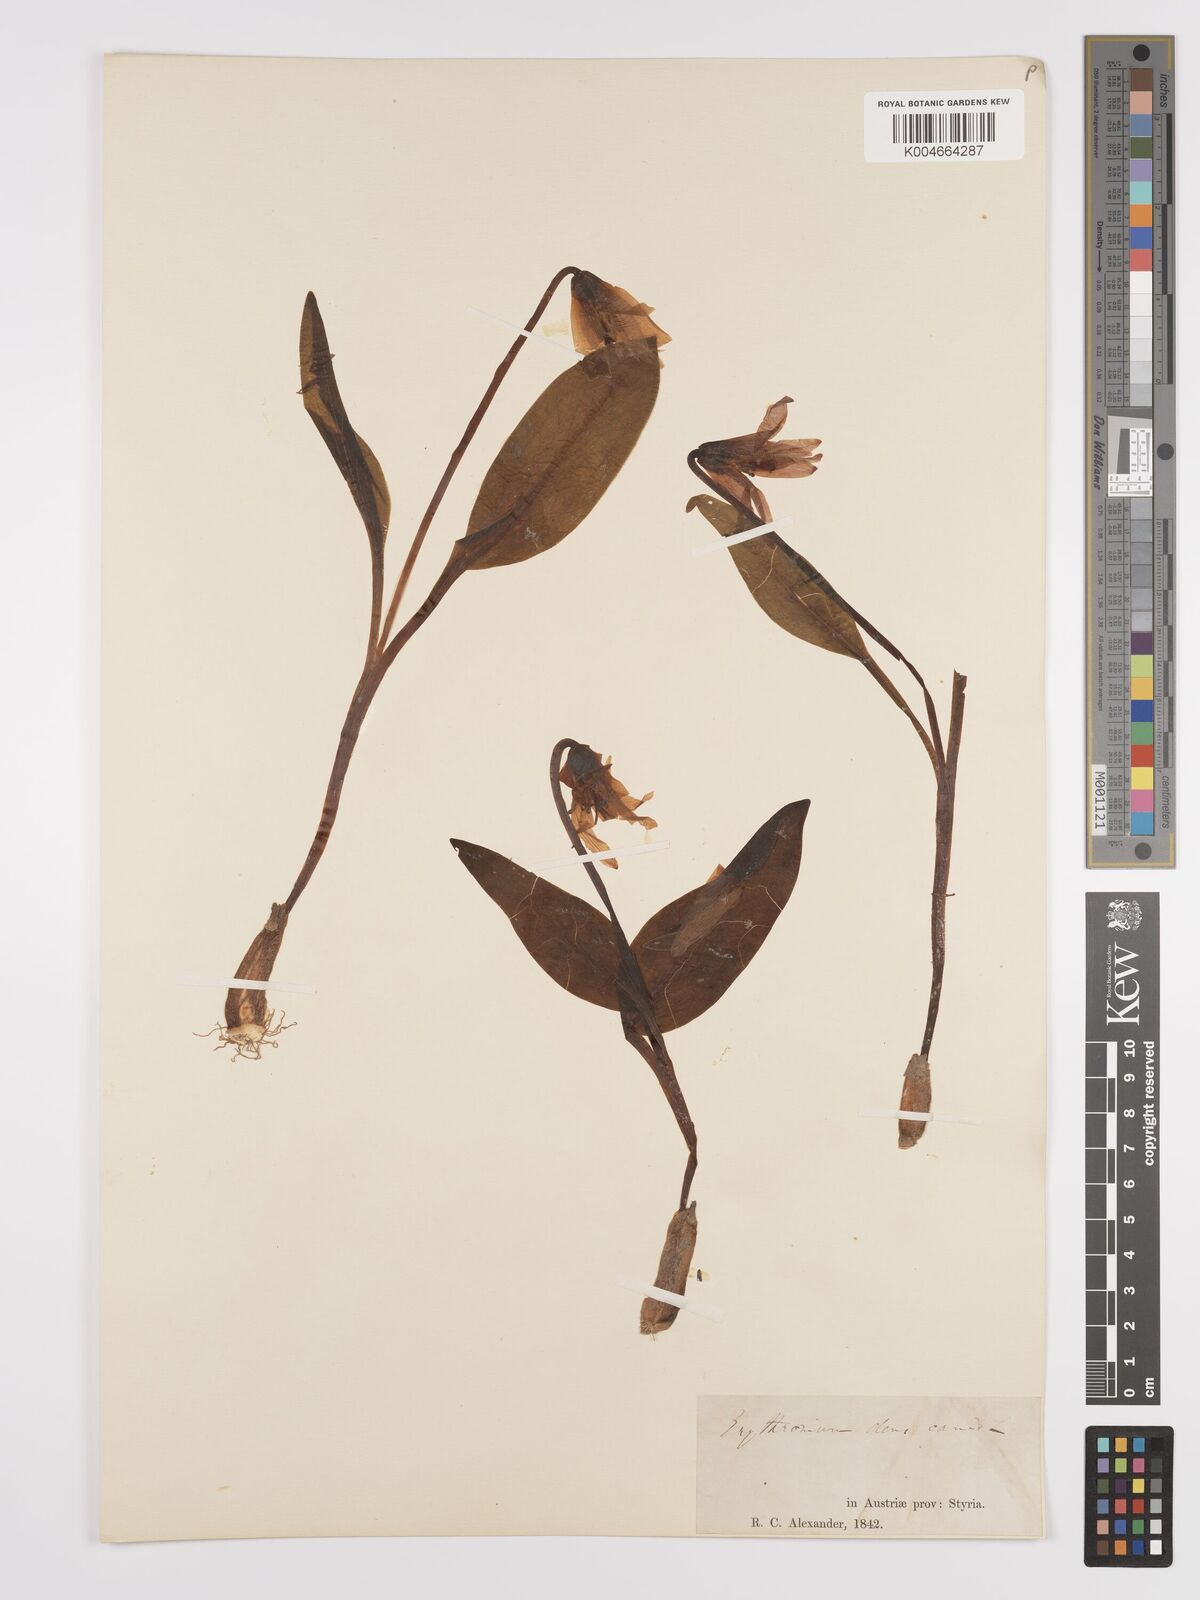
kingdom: Plantae
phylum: Tracheophyta
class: Liliopsida
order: Liliales
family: Liliaceae
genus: Erythronium
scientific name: Erythronium dens-canis
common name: Dog's-tooth-violet
